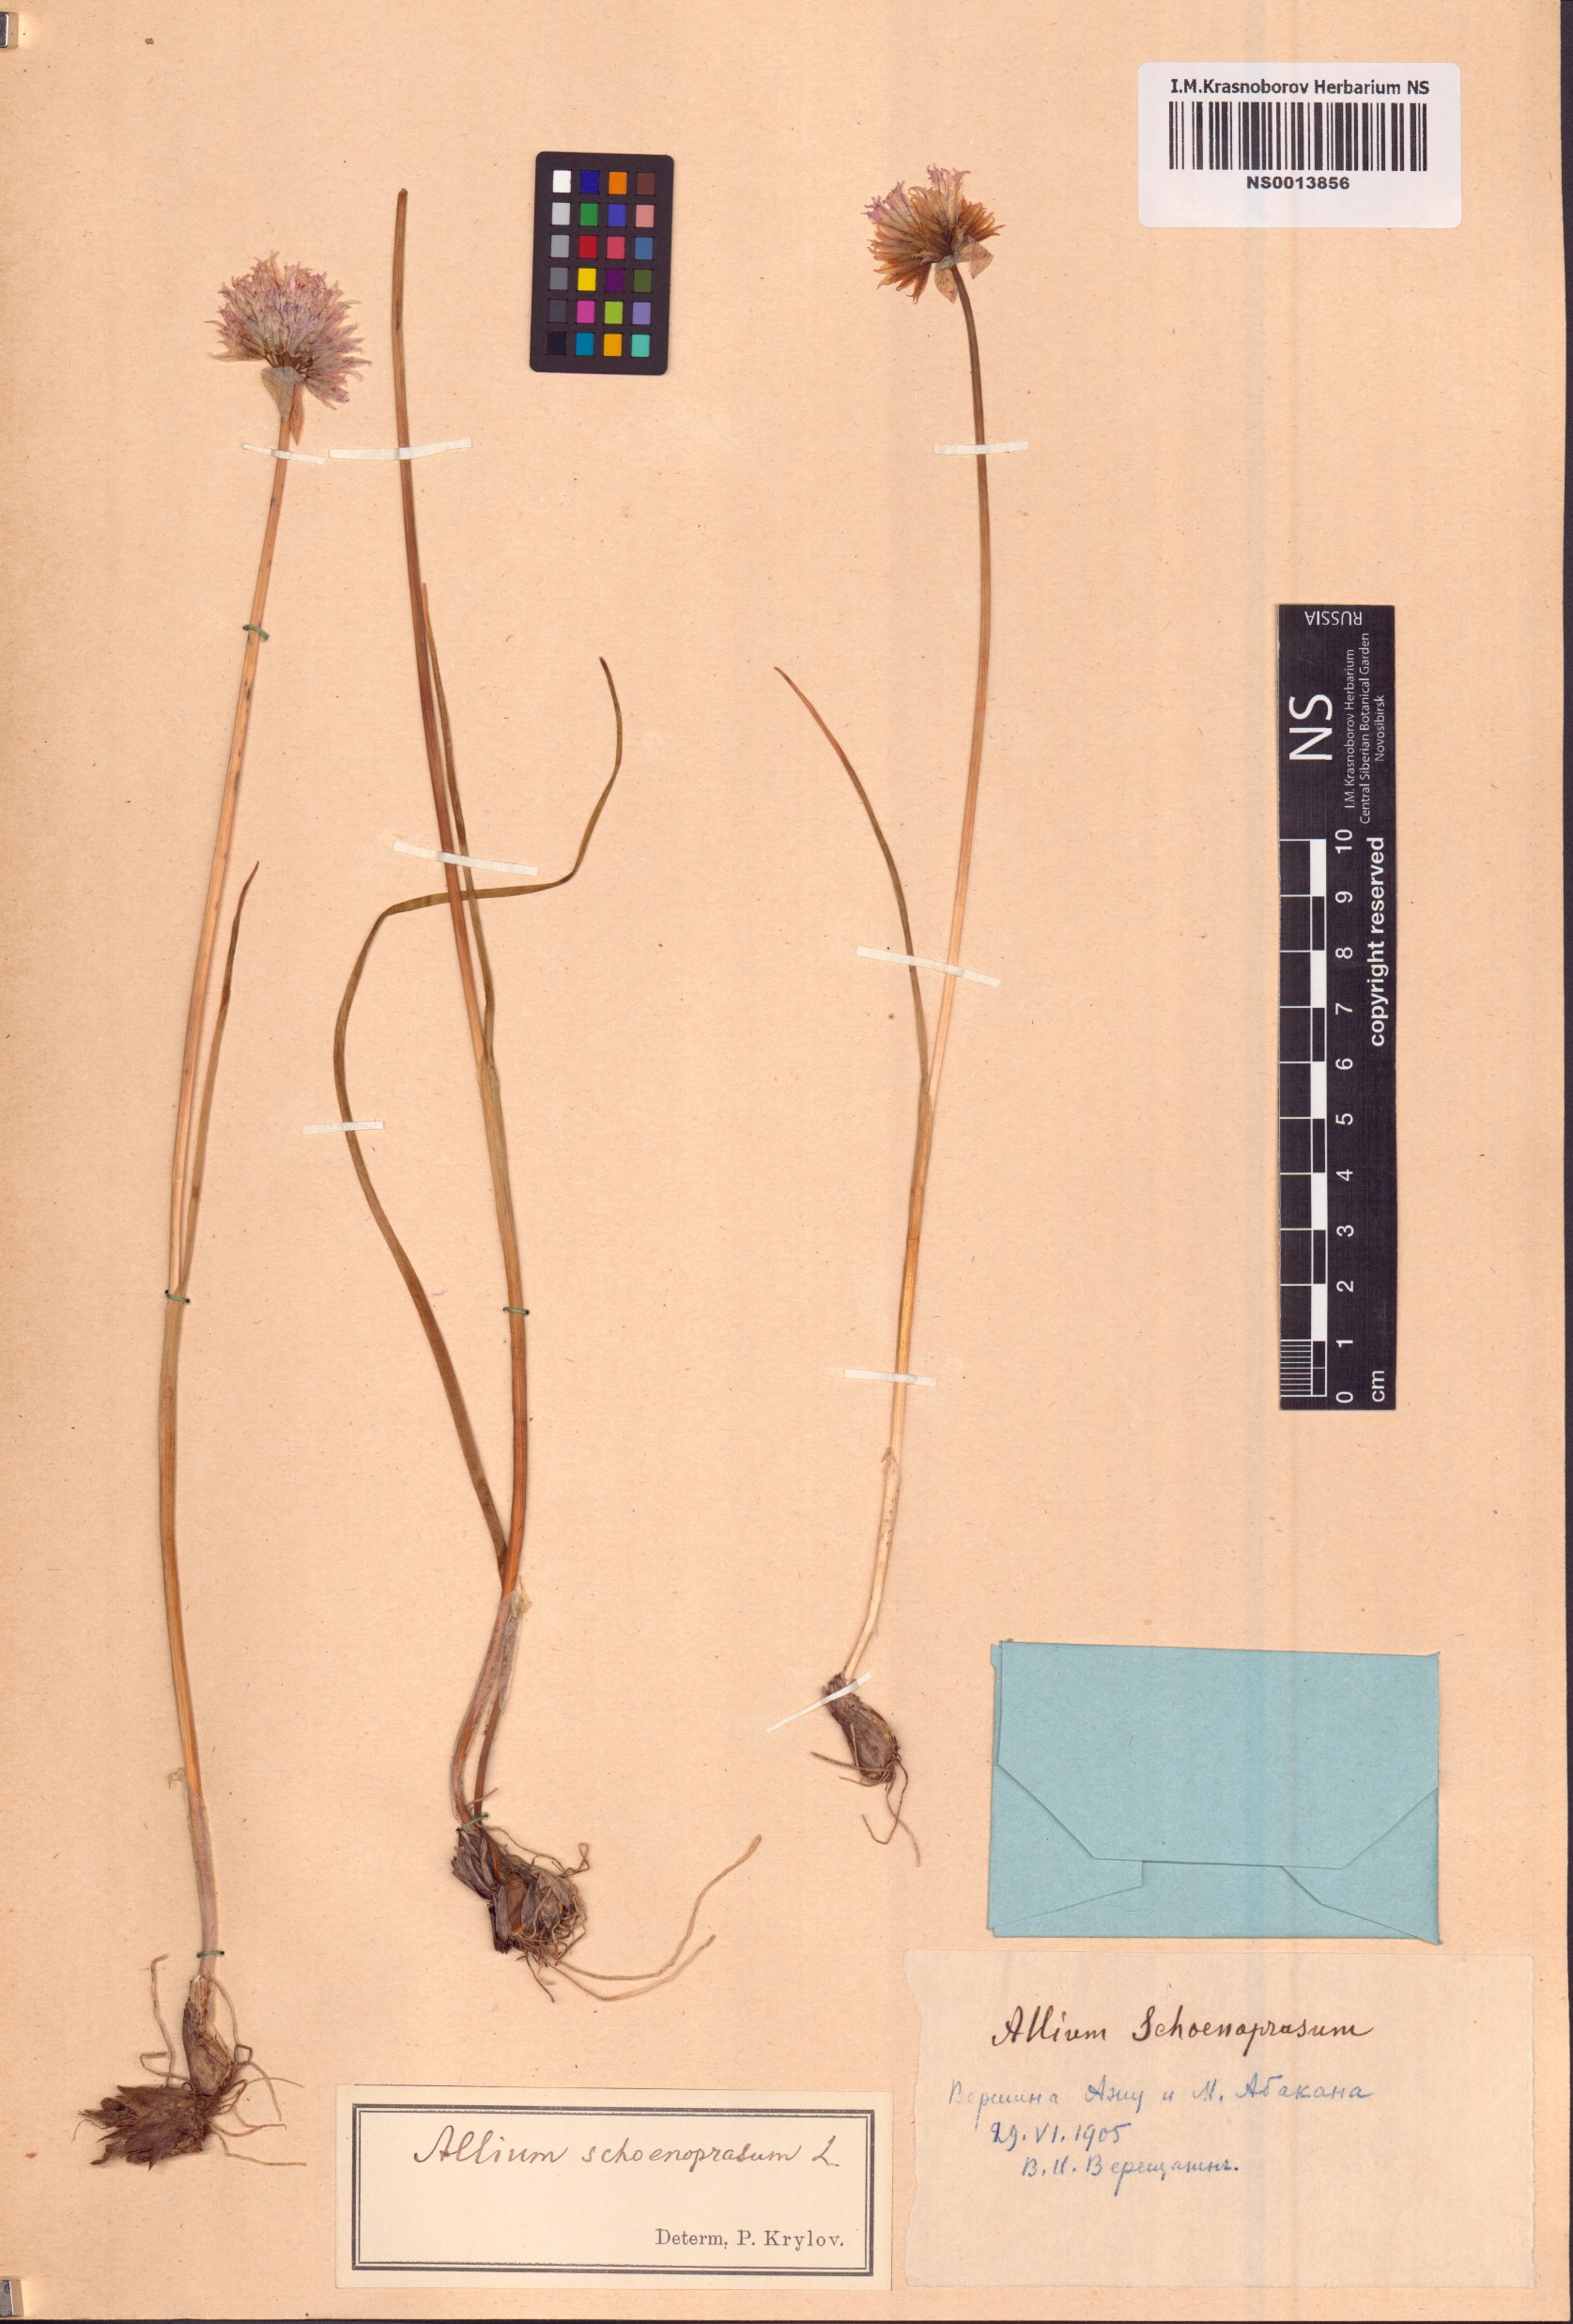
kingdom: Plantae
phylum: Tracheophyta
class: Liliopsida
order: Asparagales
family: Amaryllidaceae
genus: Allium
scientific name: Allium schoenoprasum
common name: Chives
